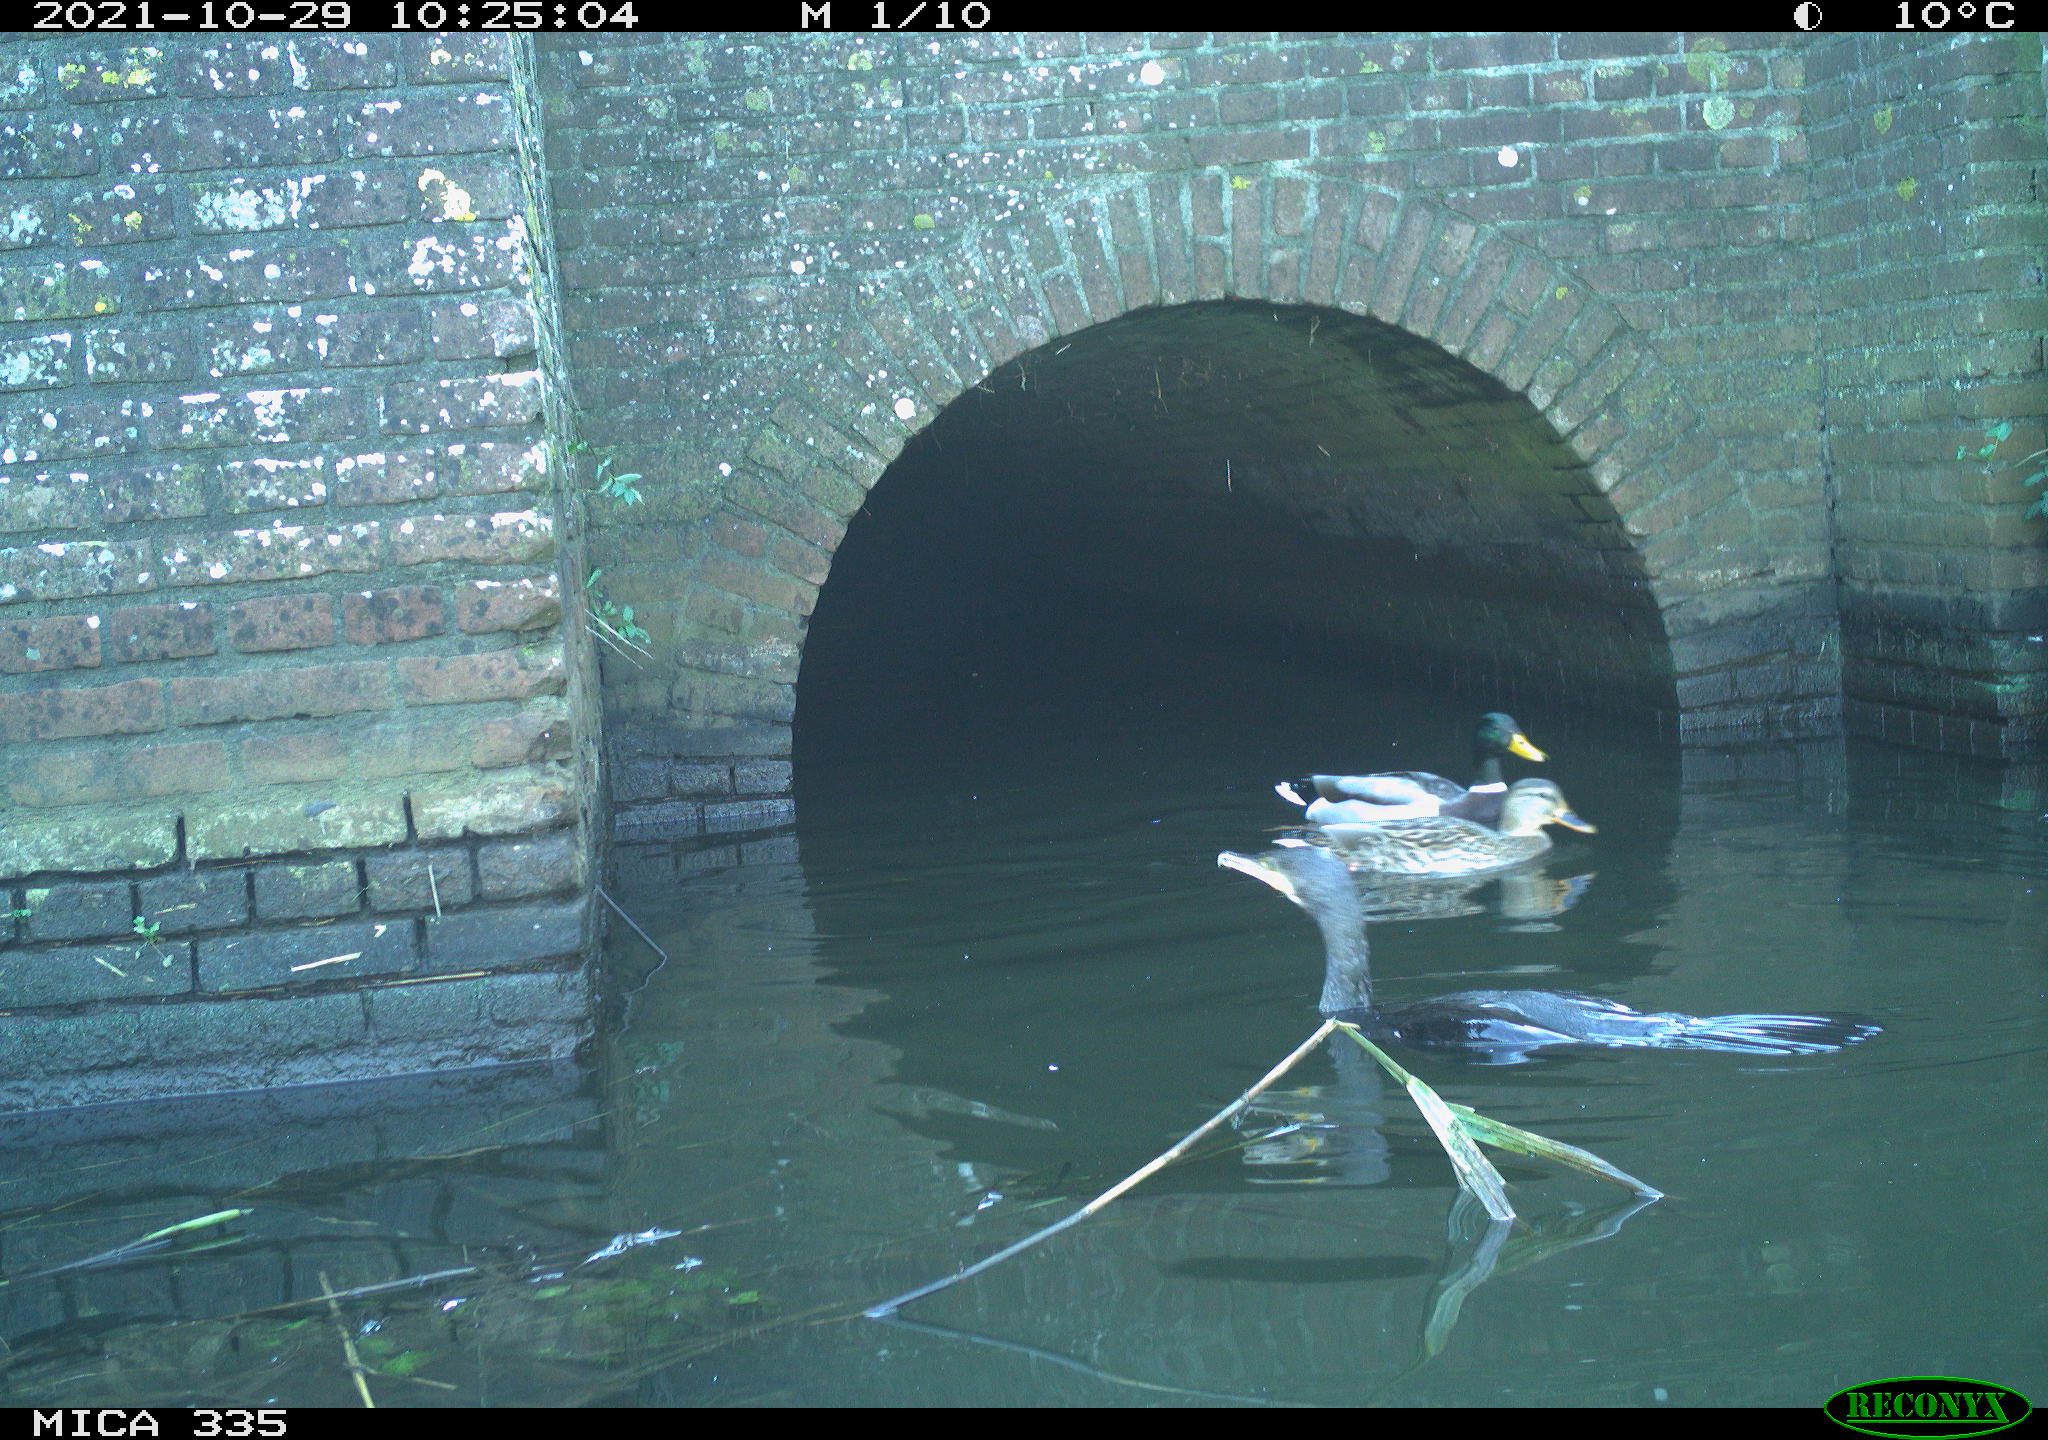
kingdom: Animalia
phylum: Chordata
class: Aves
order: Anseriformes
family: Anatidae
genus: Anas
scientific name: Anas platyrhynchos
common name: Mallard
